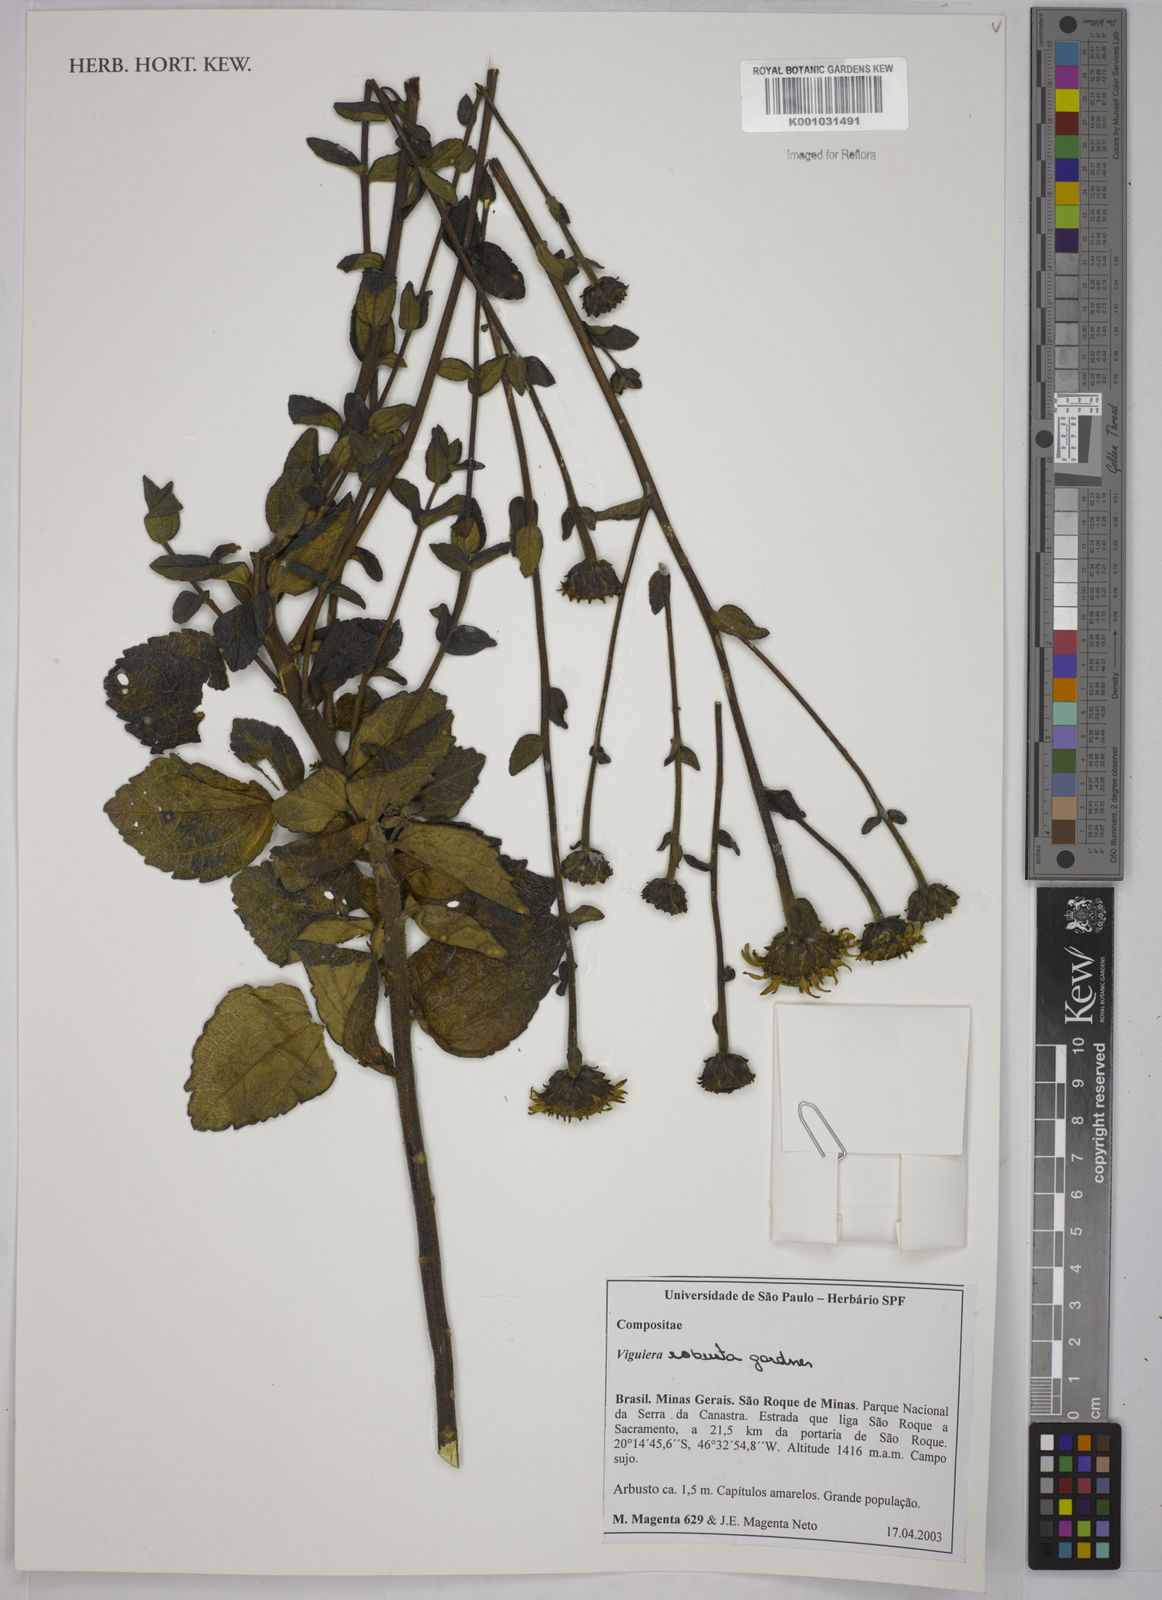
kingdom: Plantae
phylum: Tracheophyta
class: Magnoliopsida
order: Asterales
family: Asteraceae
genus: Aldama
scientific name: Aldama robusta
